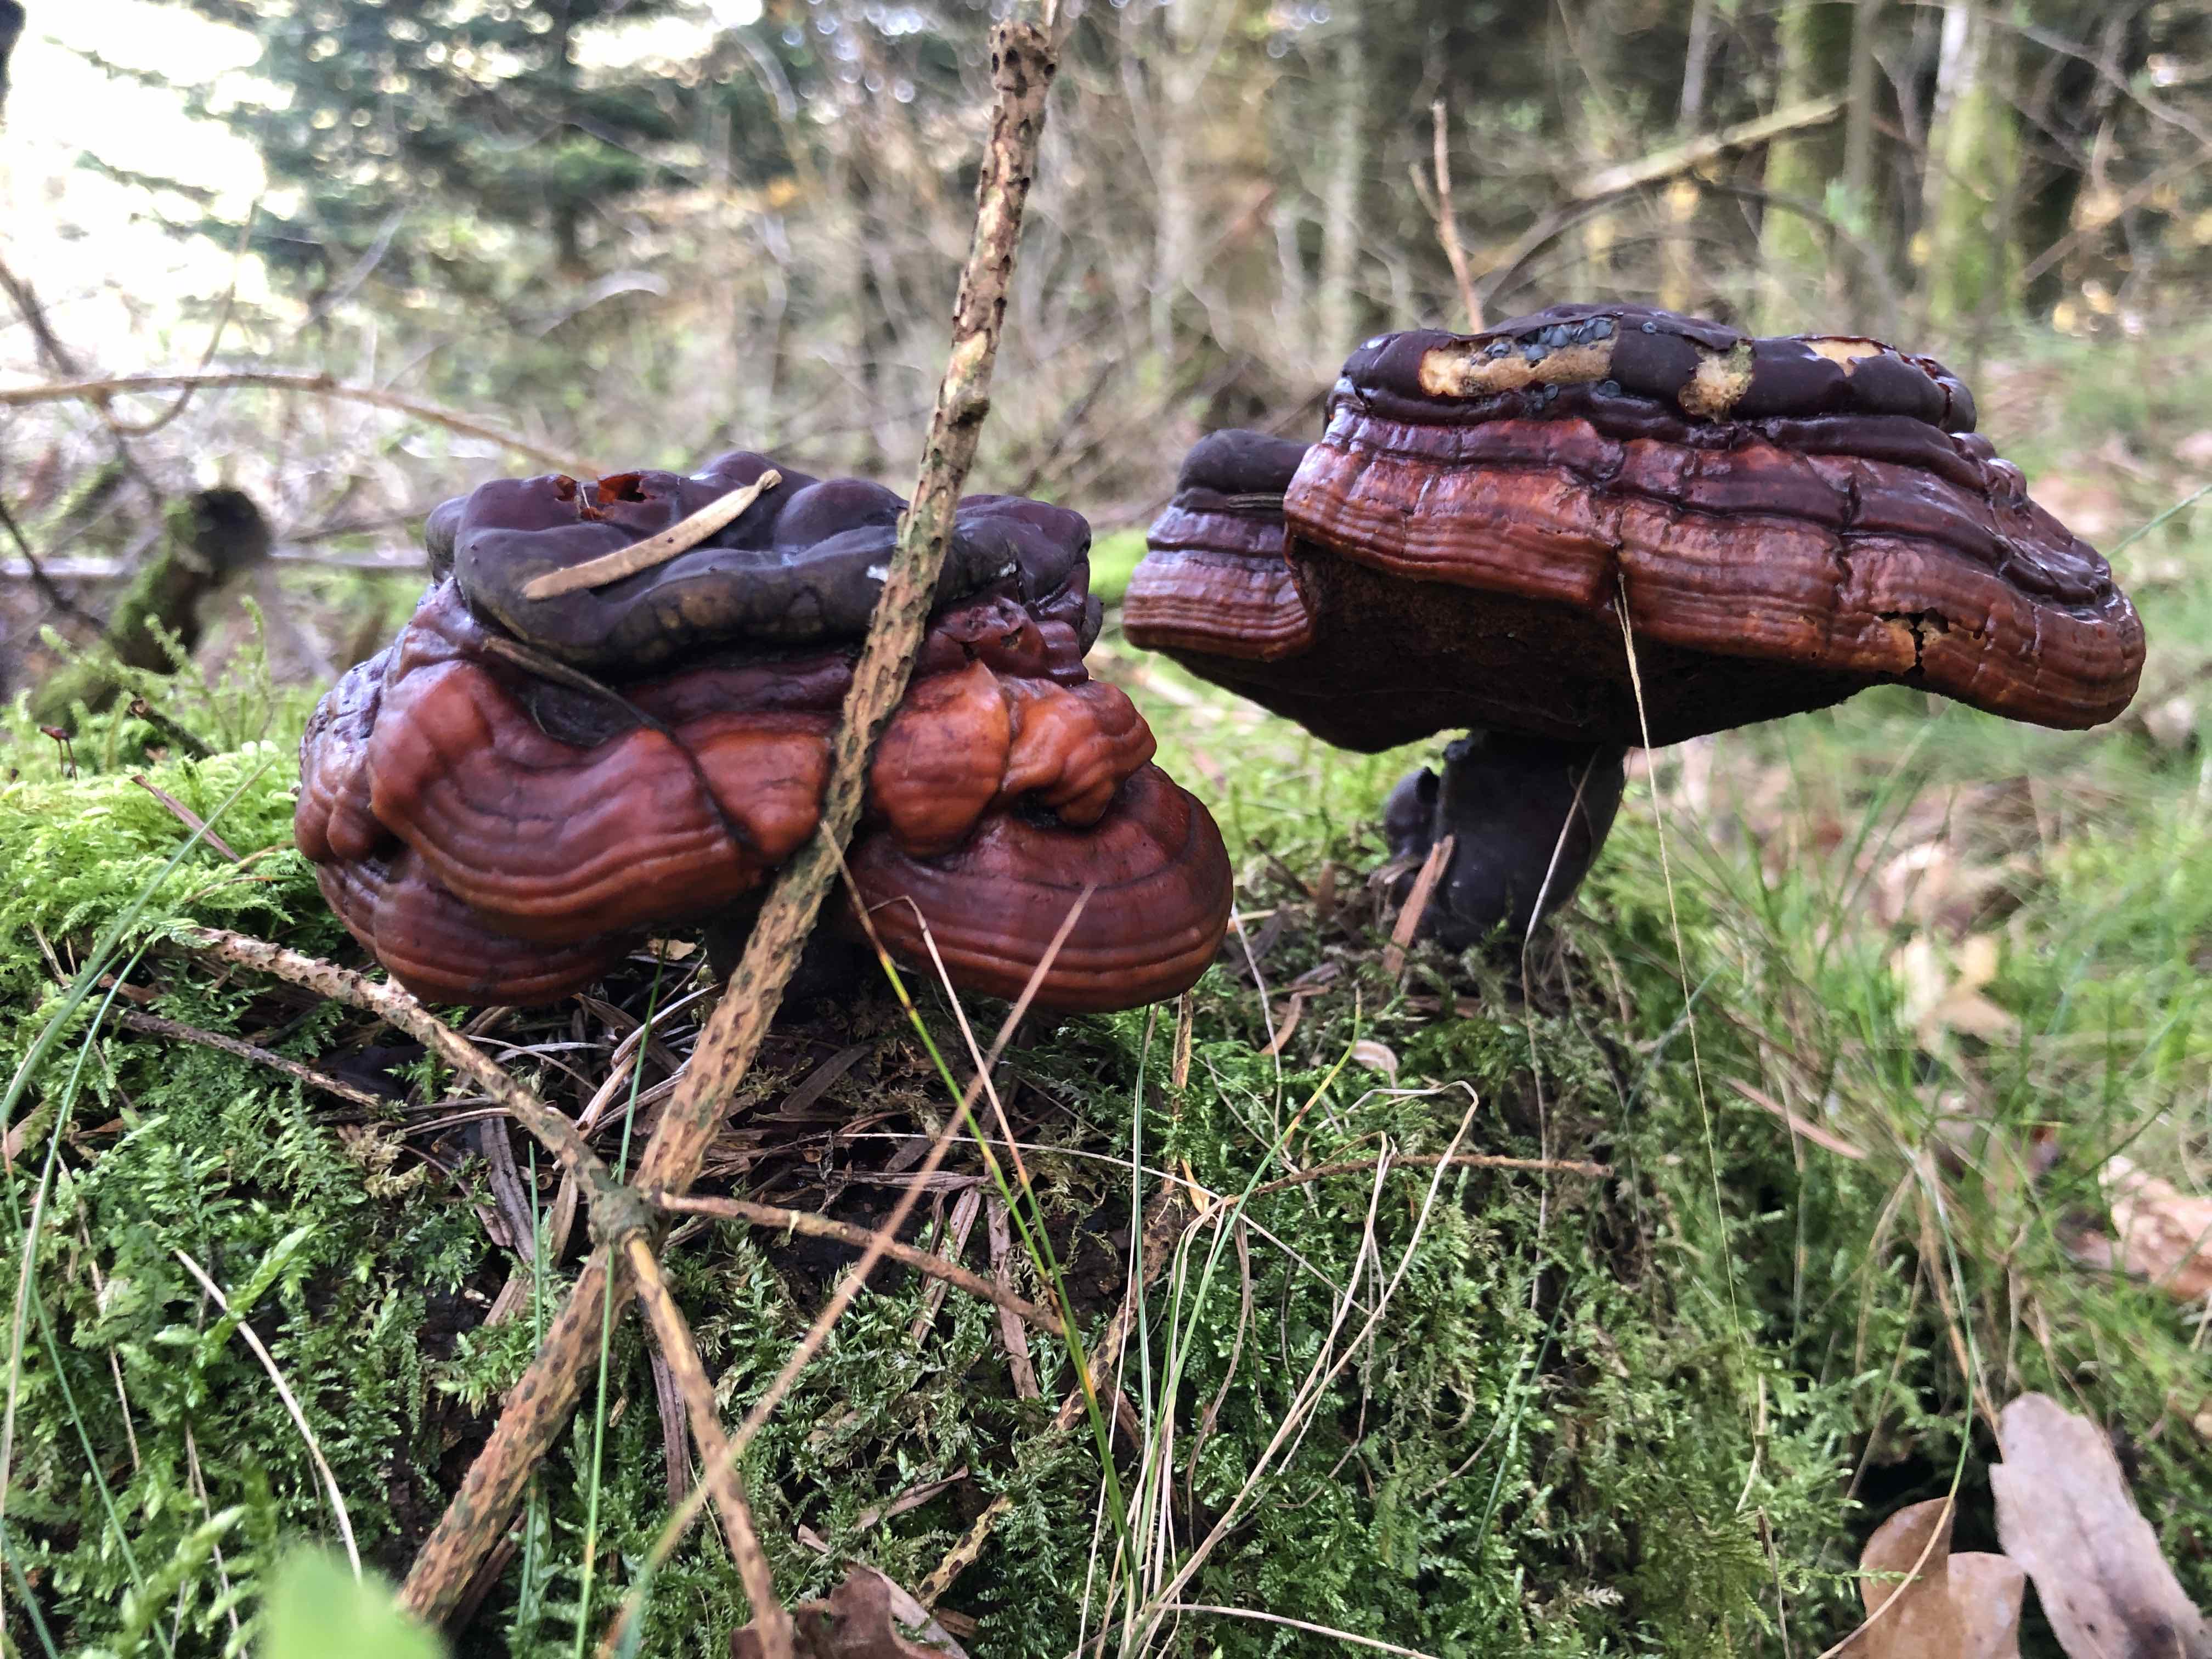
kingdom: Fungi
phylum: Basidiomycota
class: Agaricomycetes
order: Polyporales
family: Polyporaceae
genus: Ganoderma
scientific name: Ganoderma lucidum
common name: skinnende lakporesvamp
